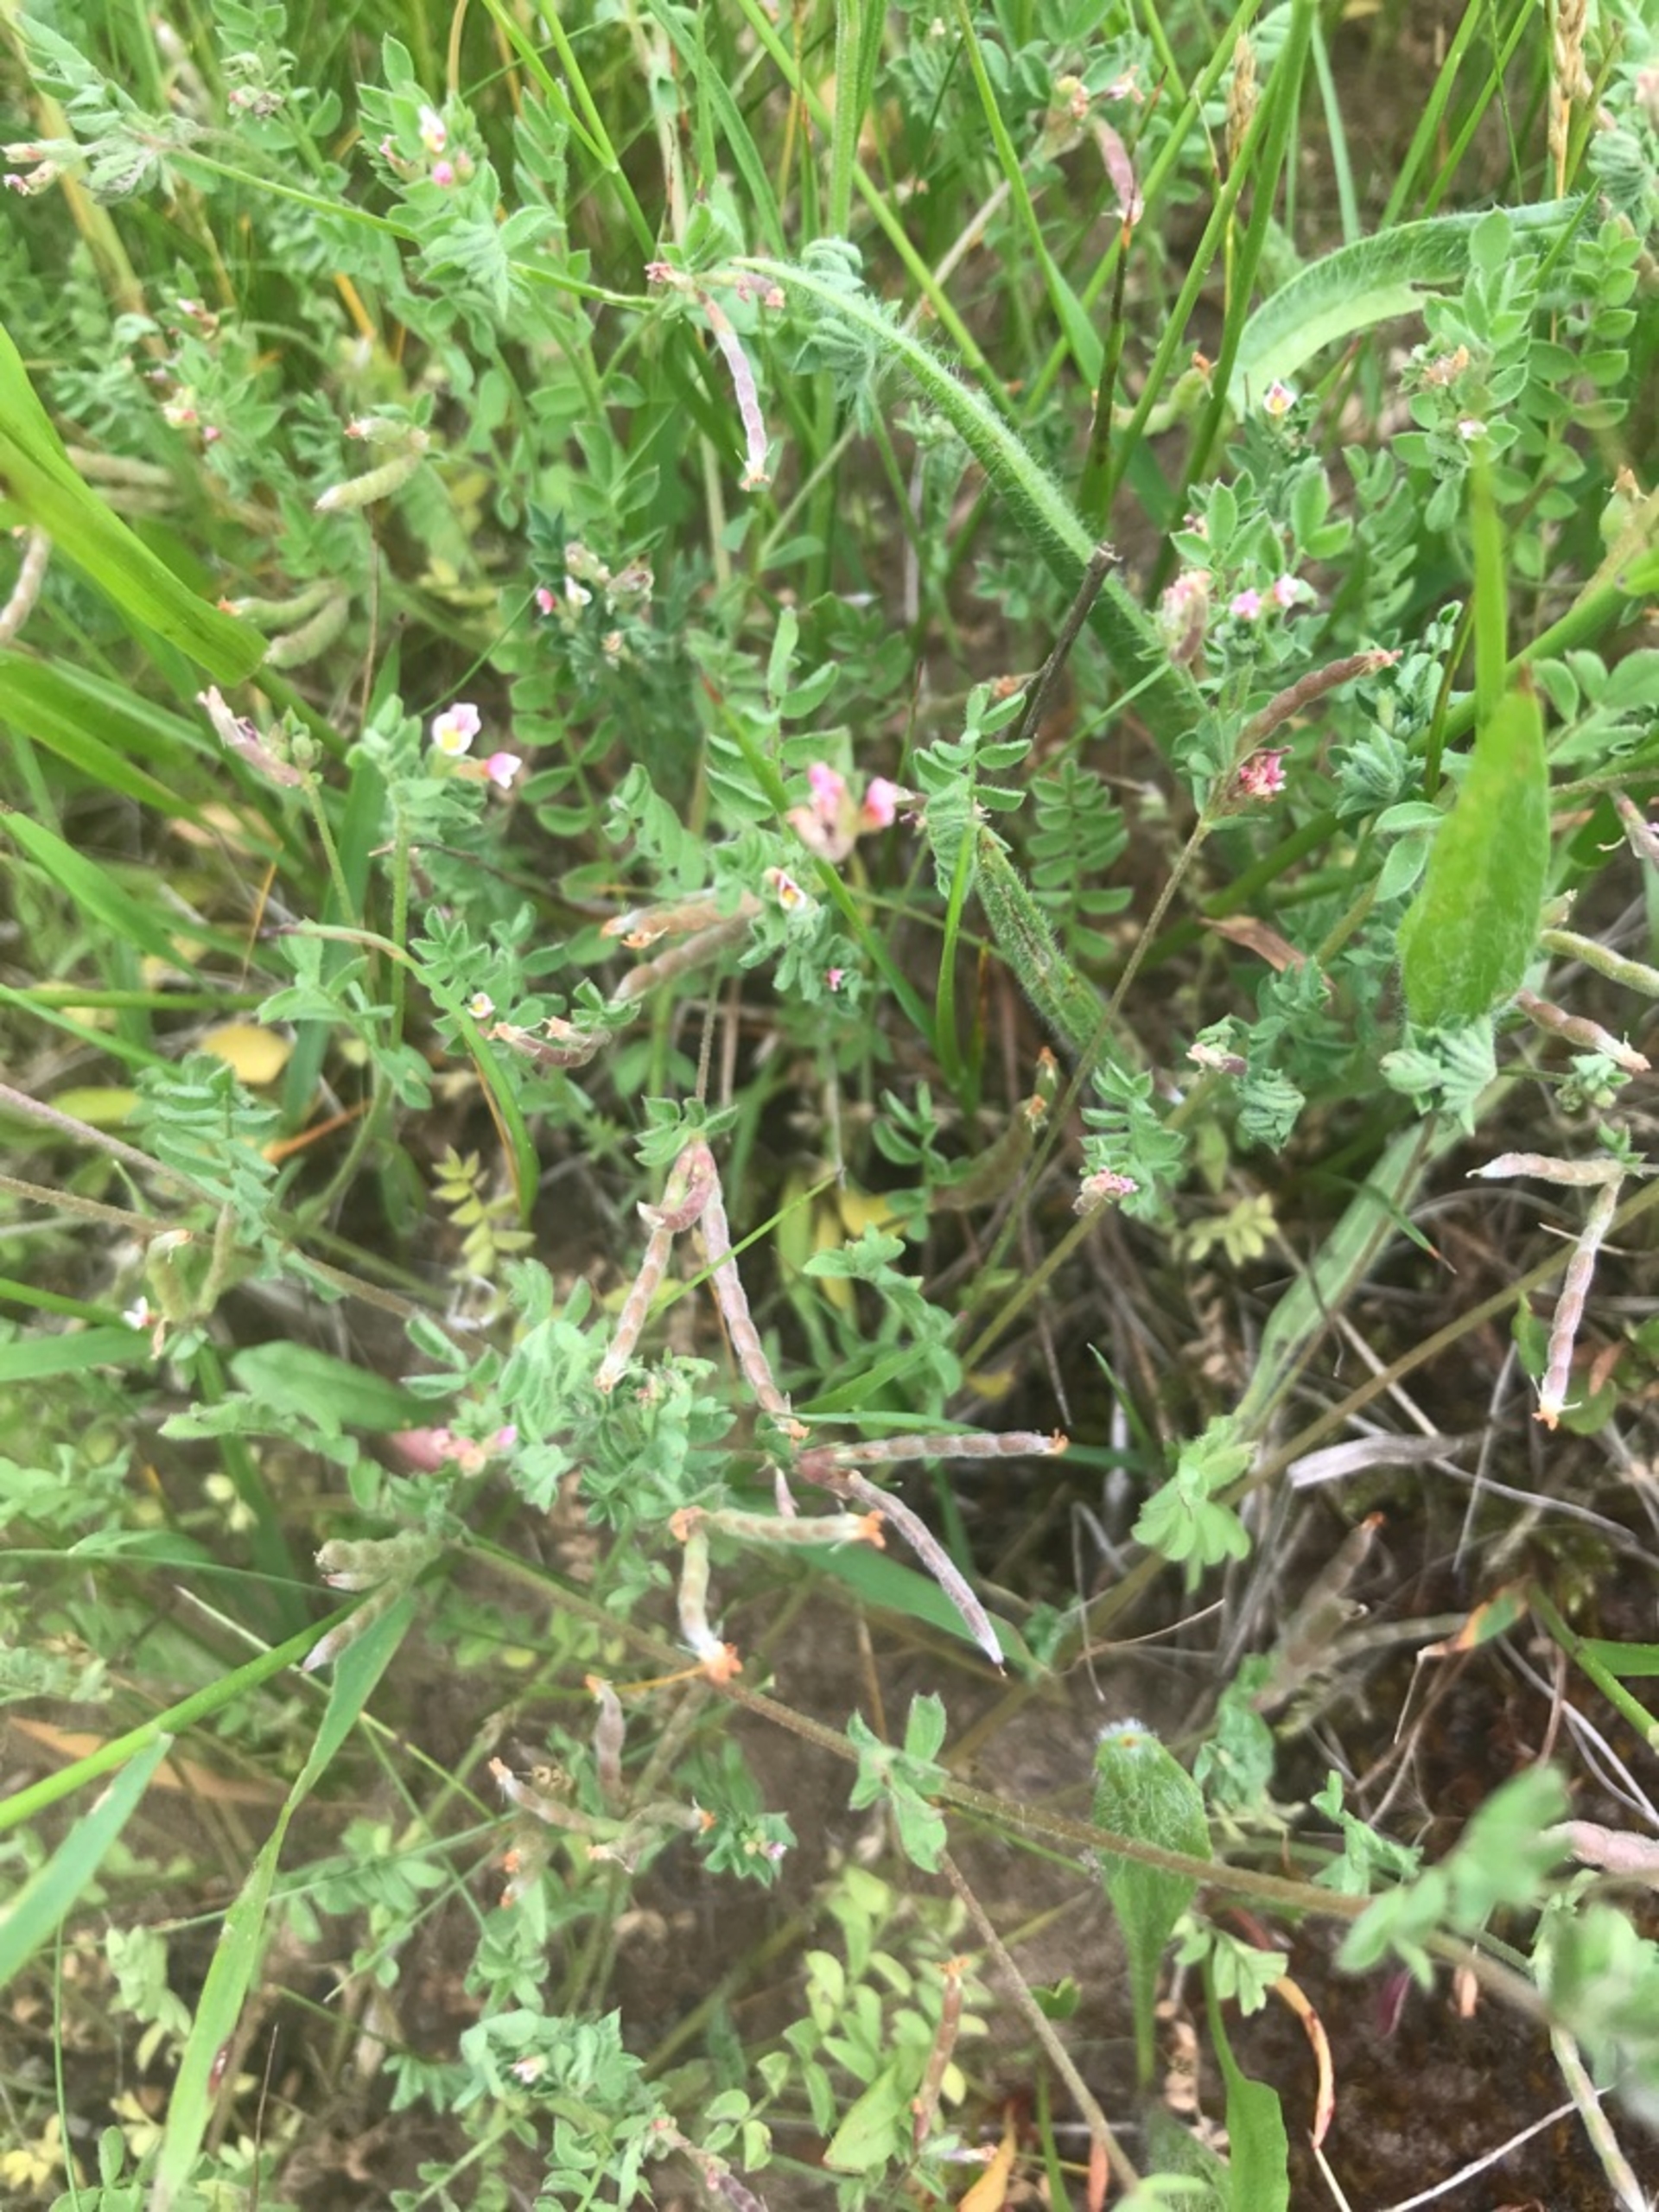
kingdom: Plantae
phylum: Tracheophyta
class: Magnoliopsida
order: Fabales
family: Fabaceae
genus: Ornithopus
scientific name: Ornithopus perpusillus
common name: Liden fugleklo
